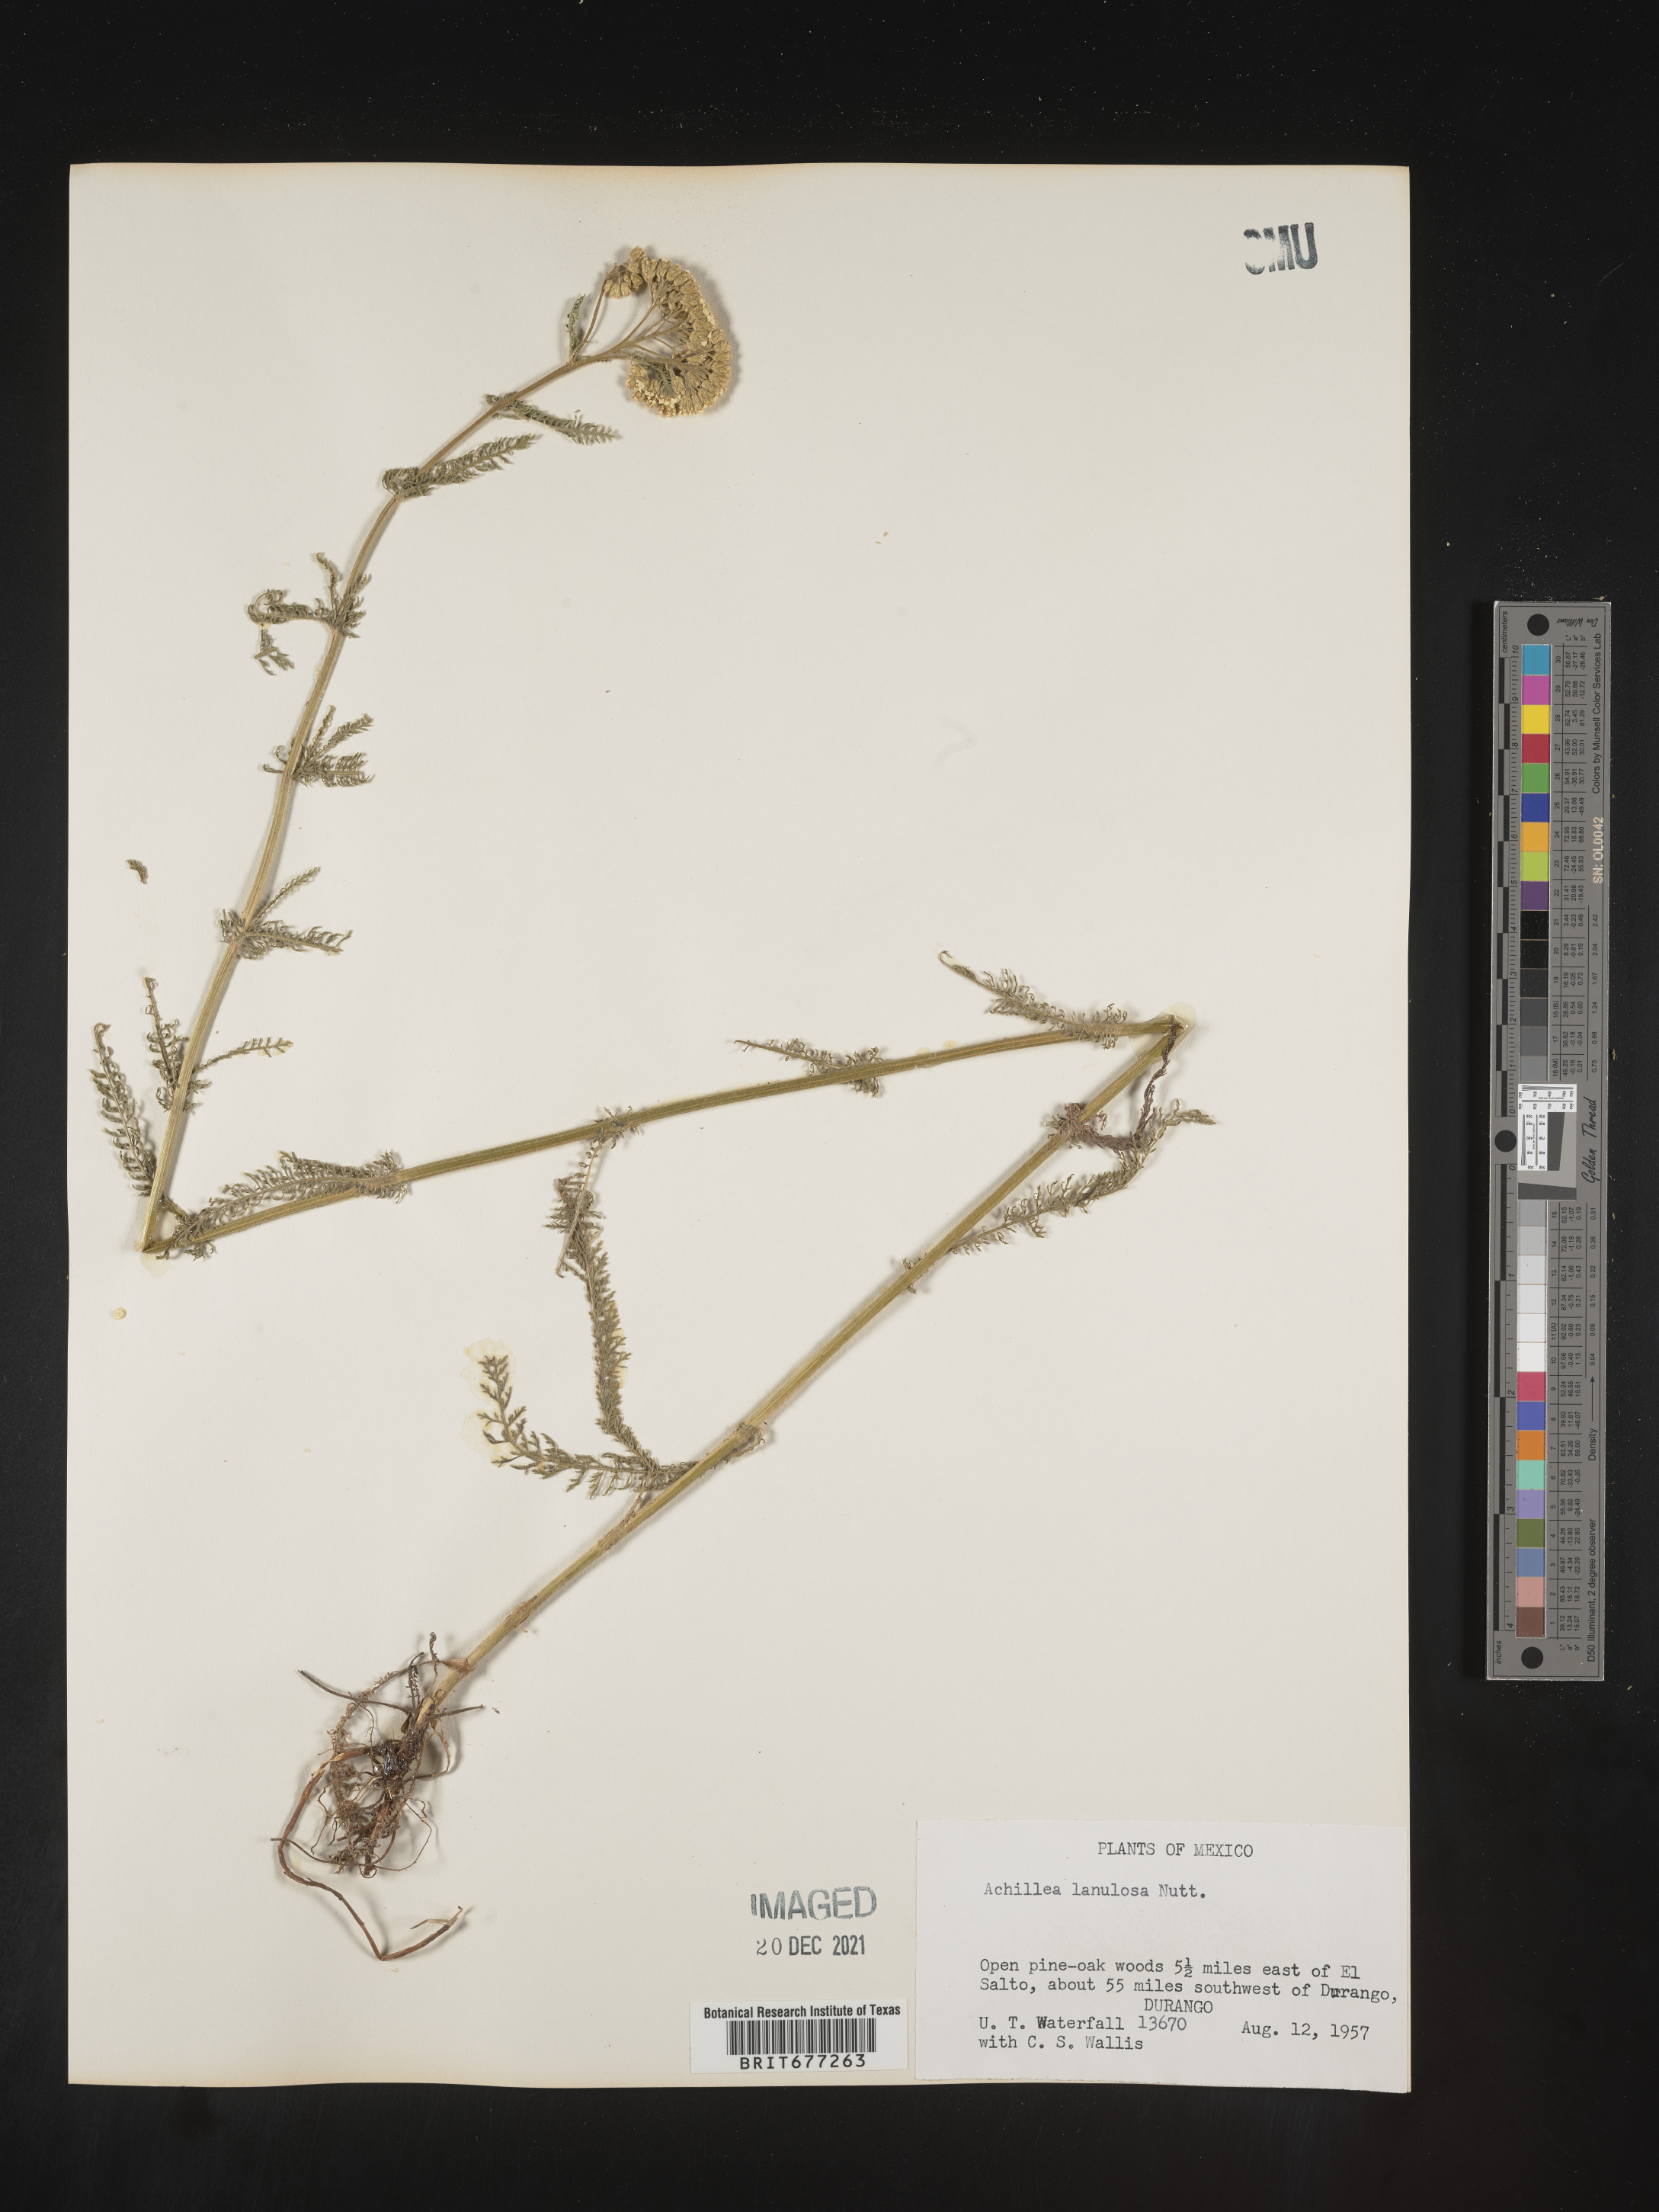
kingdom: Plantae
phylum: Tracheophyta
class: Magnoliopsida
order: Asterales
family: Asteraceae
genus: Achillea
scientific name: Achillea
